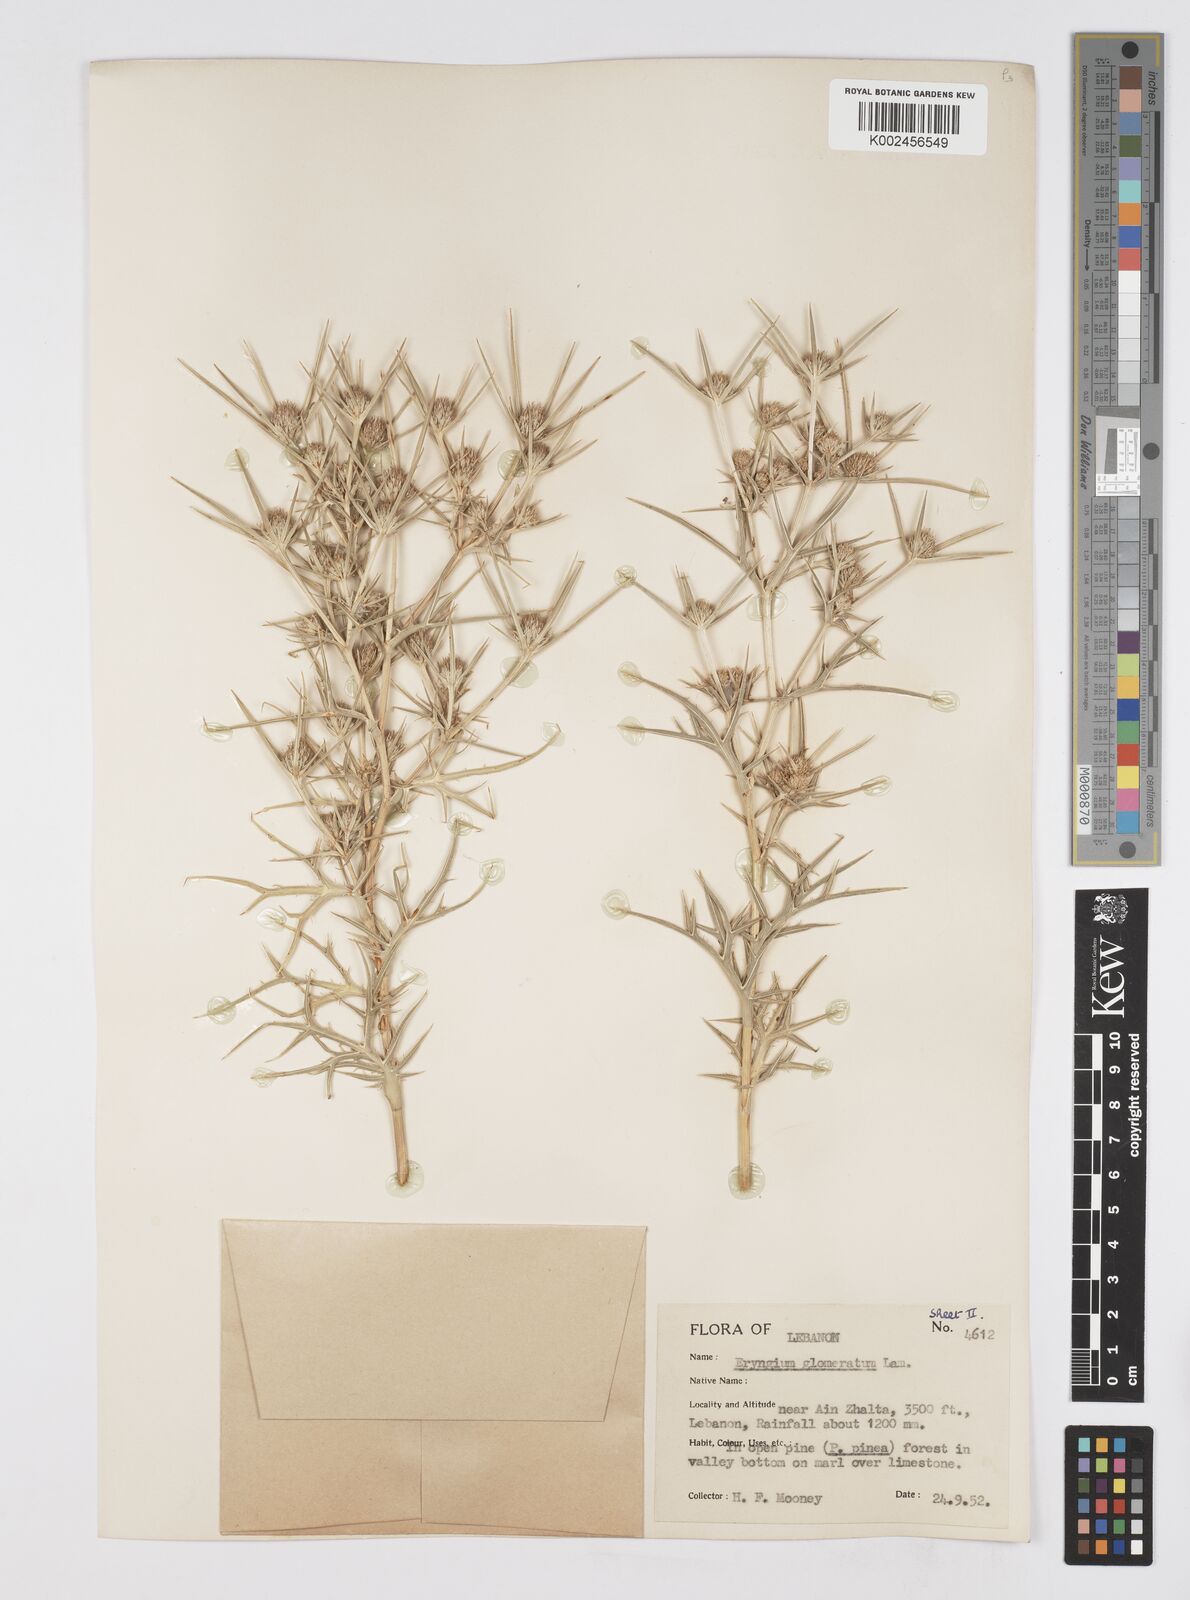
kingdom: Plantae
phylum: Tracheophyta
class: Magnoliopsida
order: Apiales
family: Apiaceae
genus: Eryngium
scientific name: Eryngium glomeratum
